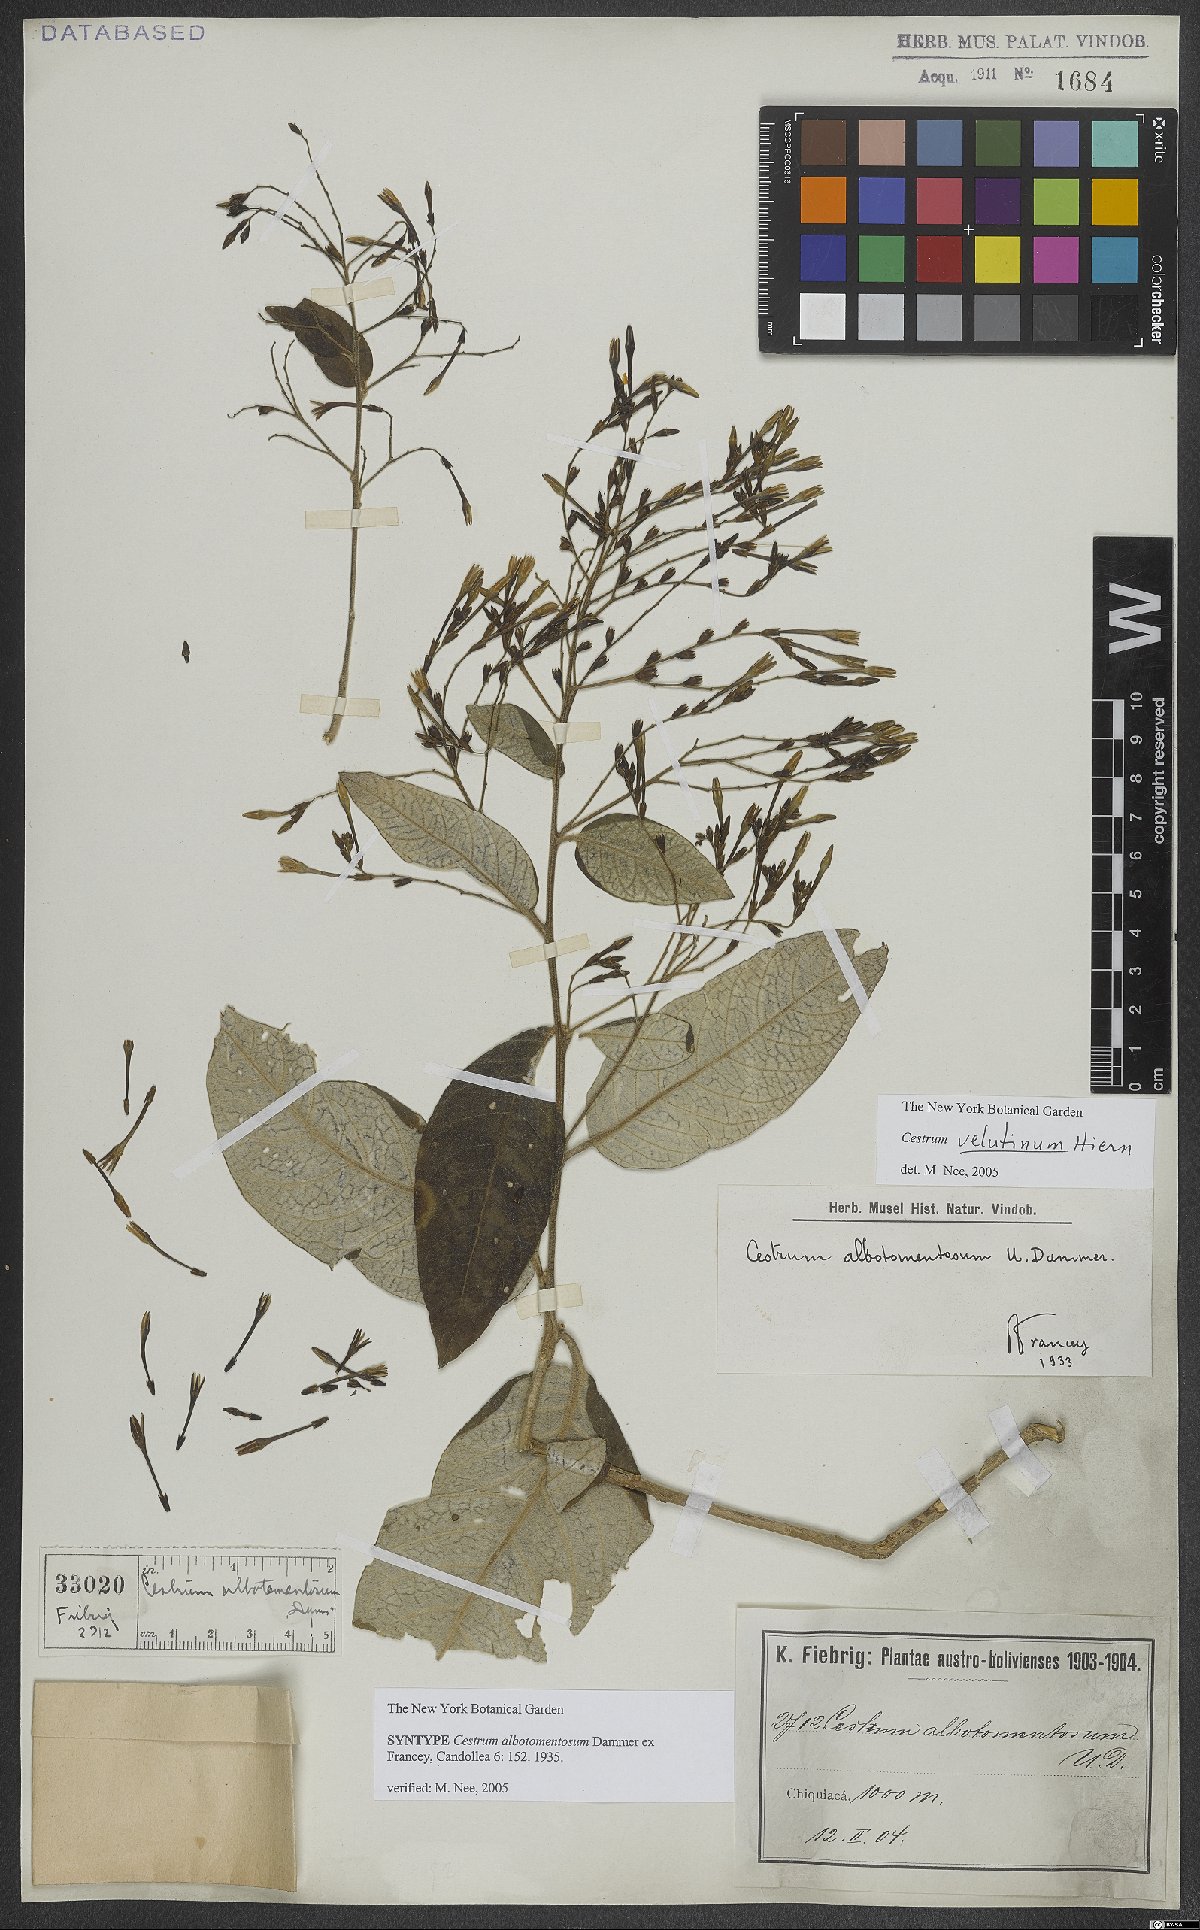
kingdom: Plantae
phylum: Tracheophyta
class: Magnoliopsida
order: Solanales
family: Solanaceae
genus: Cestrum
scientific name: Cestrum velutinum
